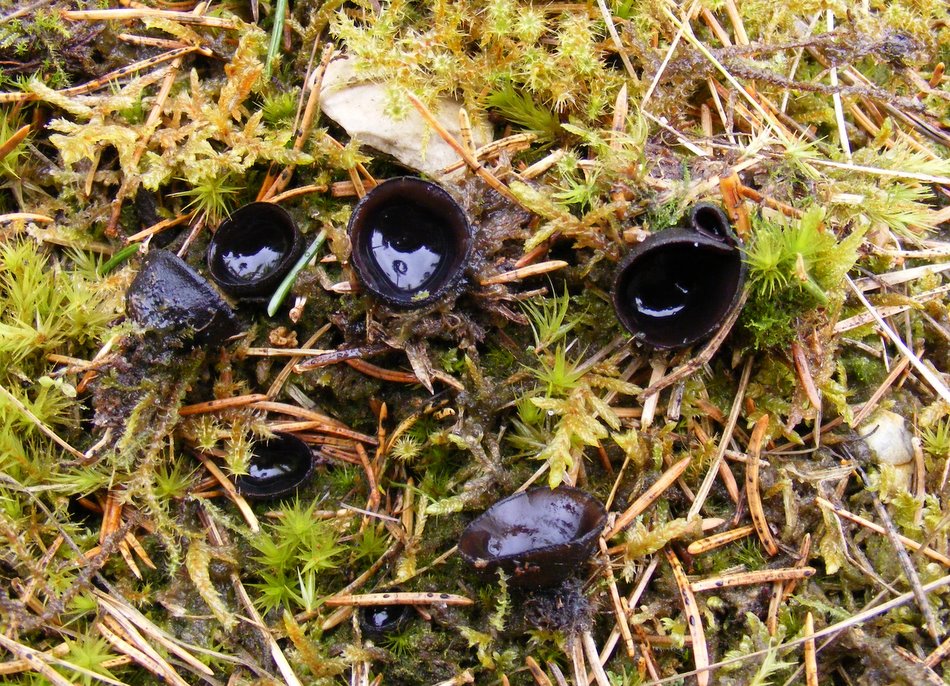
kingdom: Fungi
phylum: Ascomycota
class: Pezizomycetes
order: Pezizales
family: Sarcosomataceae
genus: Pseudoplectania
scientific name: Pseudoplectania nigrella
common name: almindelig sortbæger
